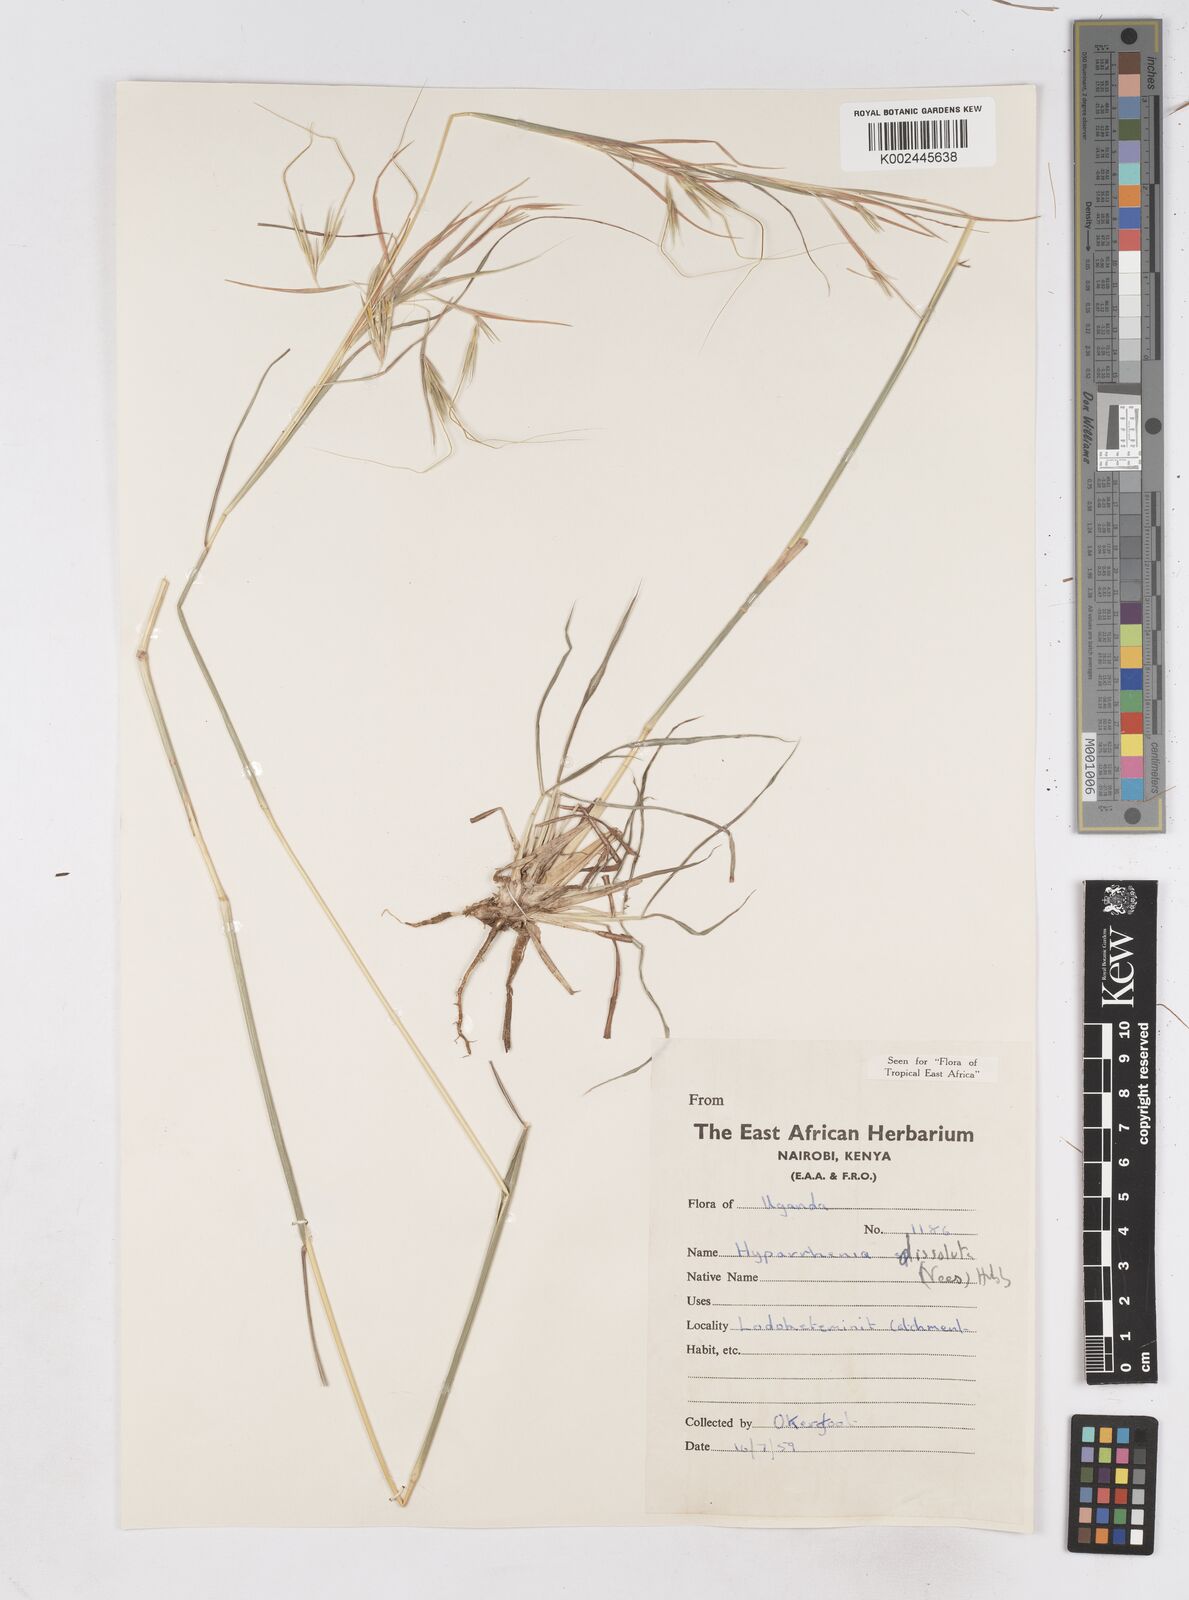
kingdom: Plantae
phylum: Tracheophyta
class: Liliopsida
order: Poales
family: Poaceae
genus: Hyperthelia
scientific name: Hyperthelia dissoluta
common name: Yellow thatching grass
